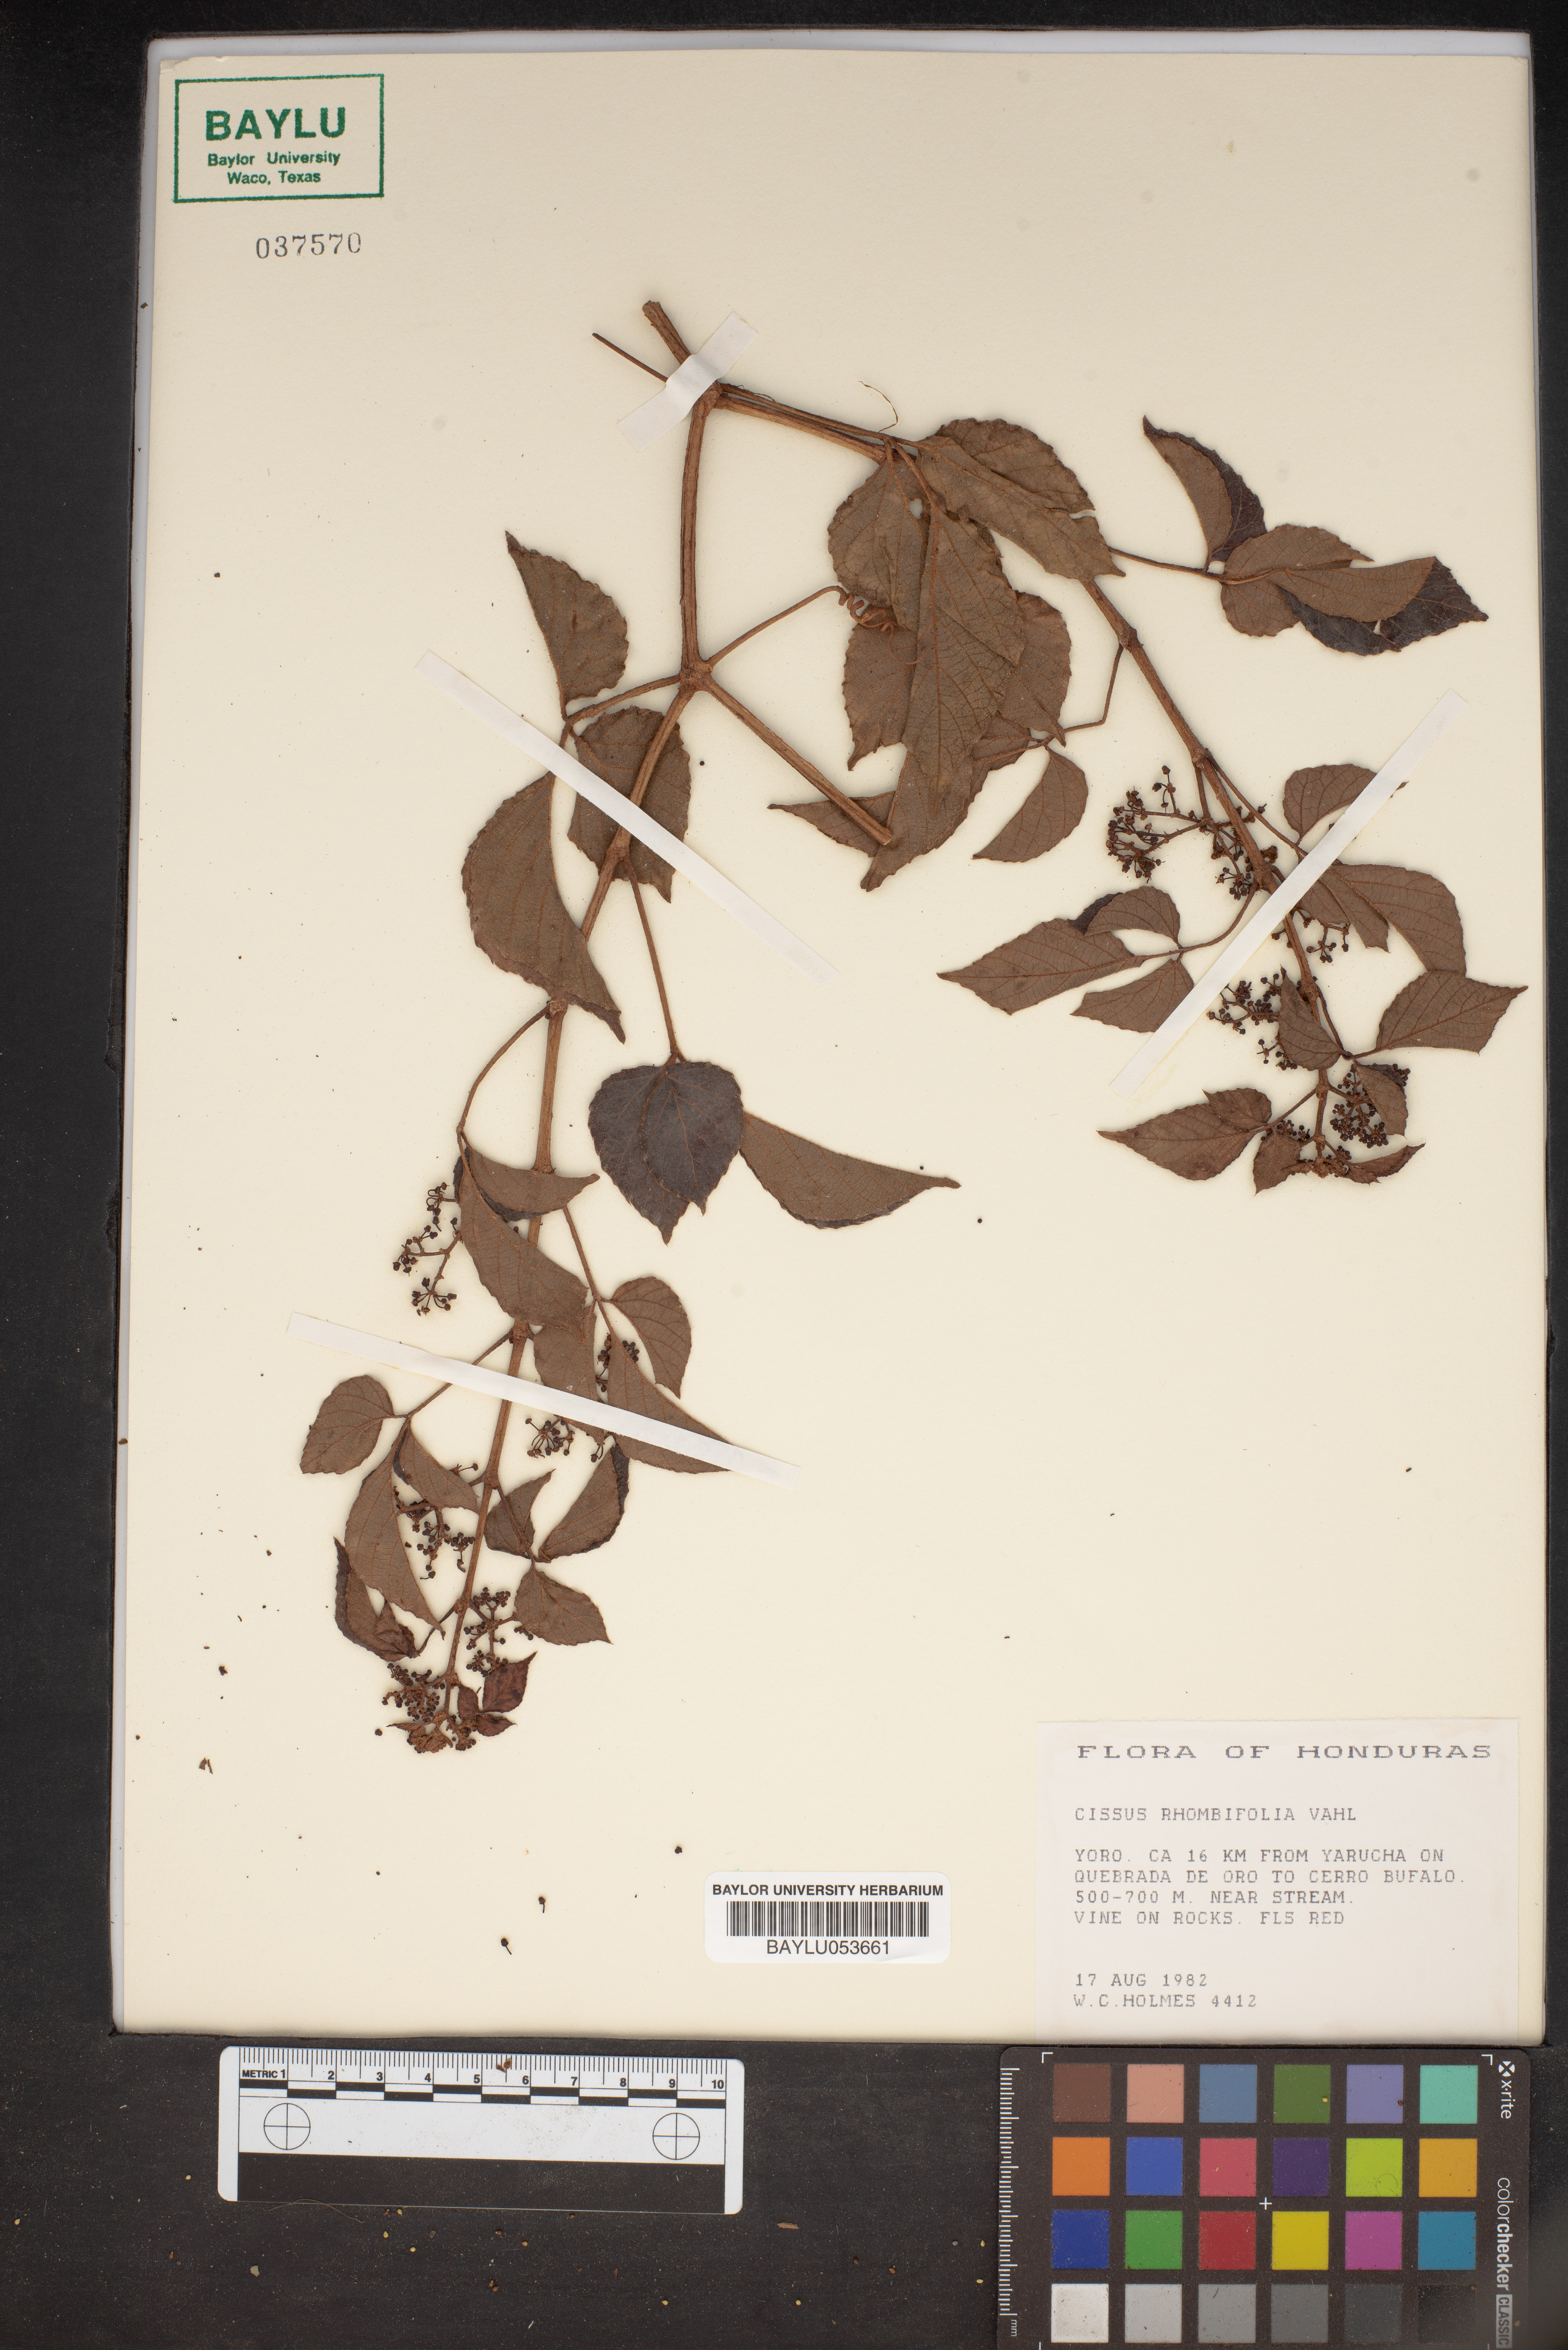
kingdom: Plantae
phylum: Tracheophyta
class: Magnoliopsida
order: Vitales
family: Vitaceae
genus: Cissus
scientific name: Cissus alata
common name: Venezuela treebind
